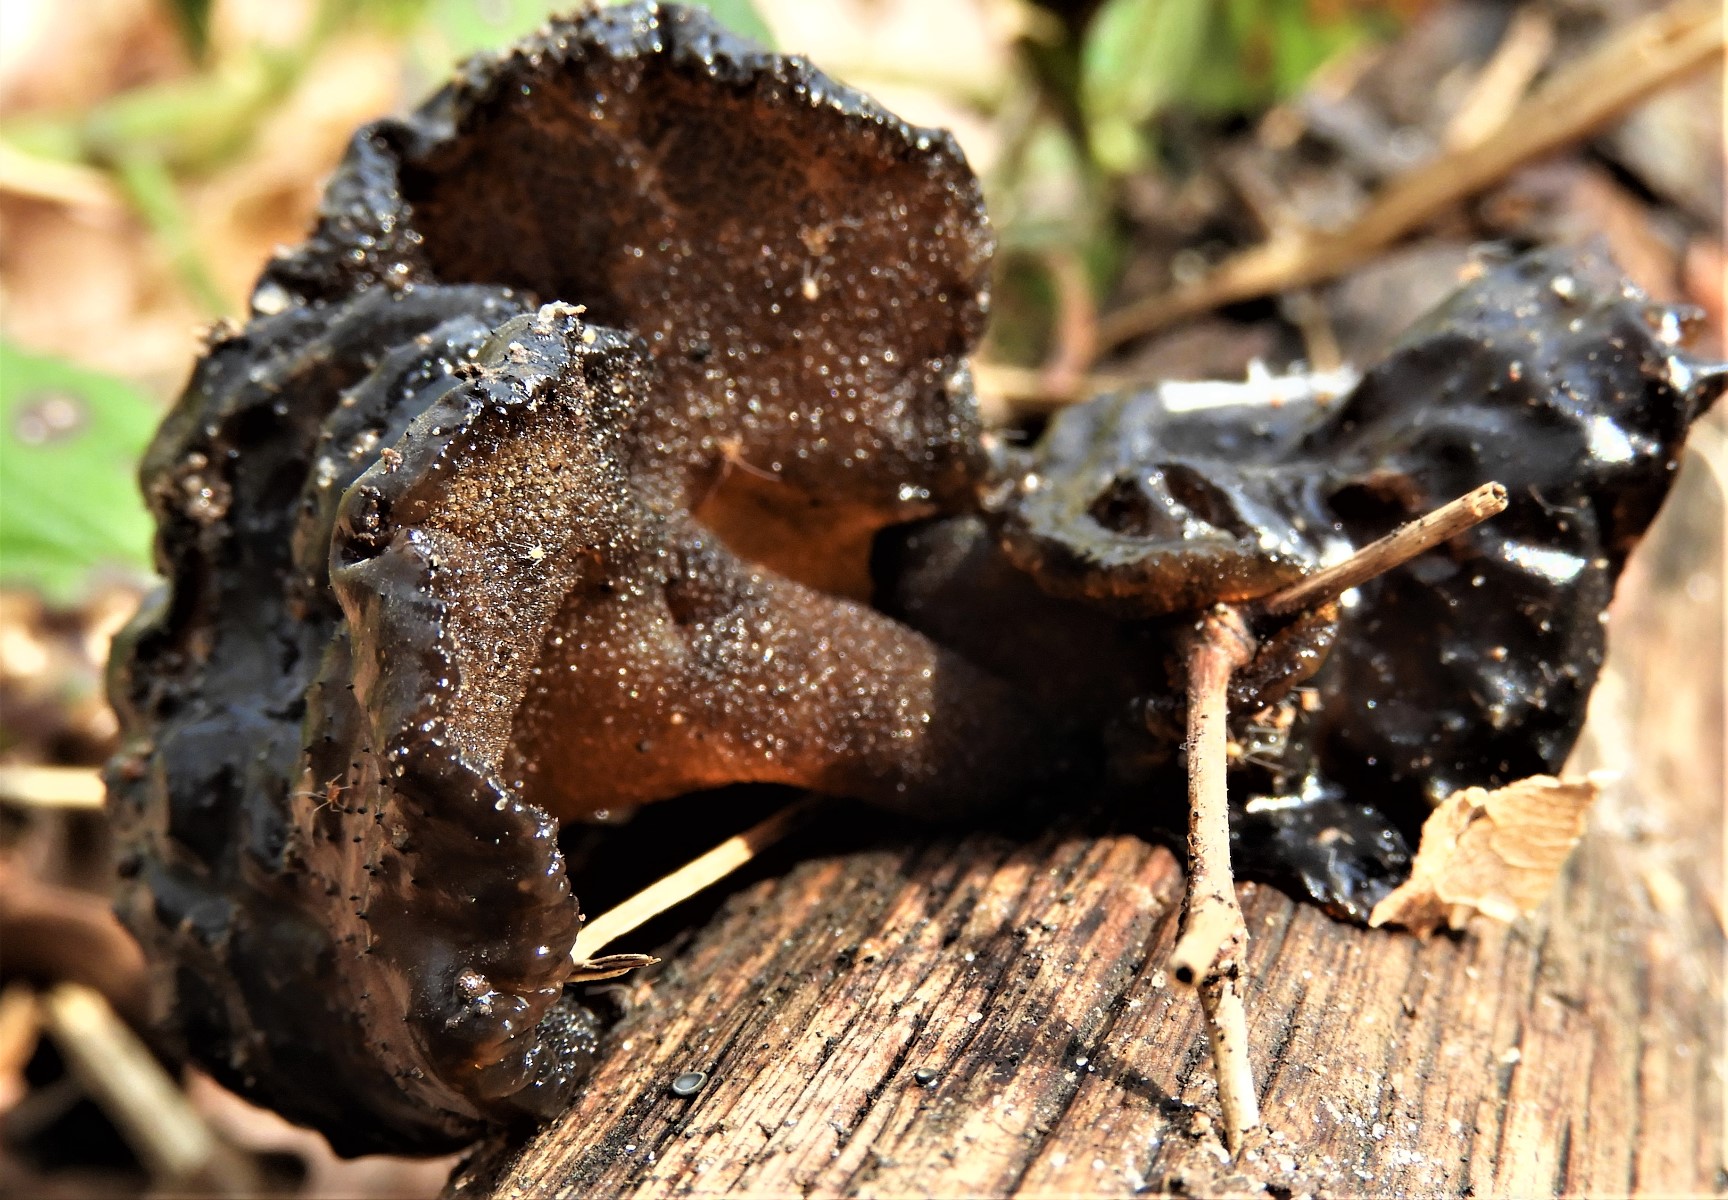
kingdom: Fungi
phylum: Basidiomycota
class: Agaricomycetes
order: Auriculariales
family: Auriculariaceae
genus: Exidia
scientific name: Exidia glandulosa
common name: ege-bævretop
